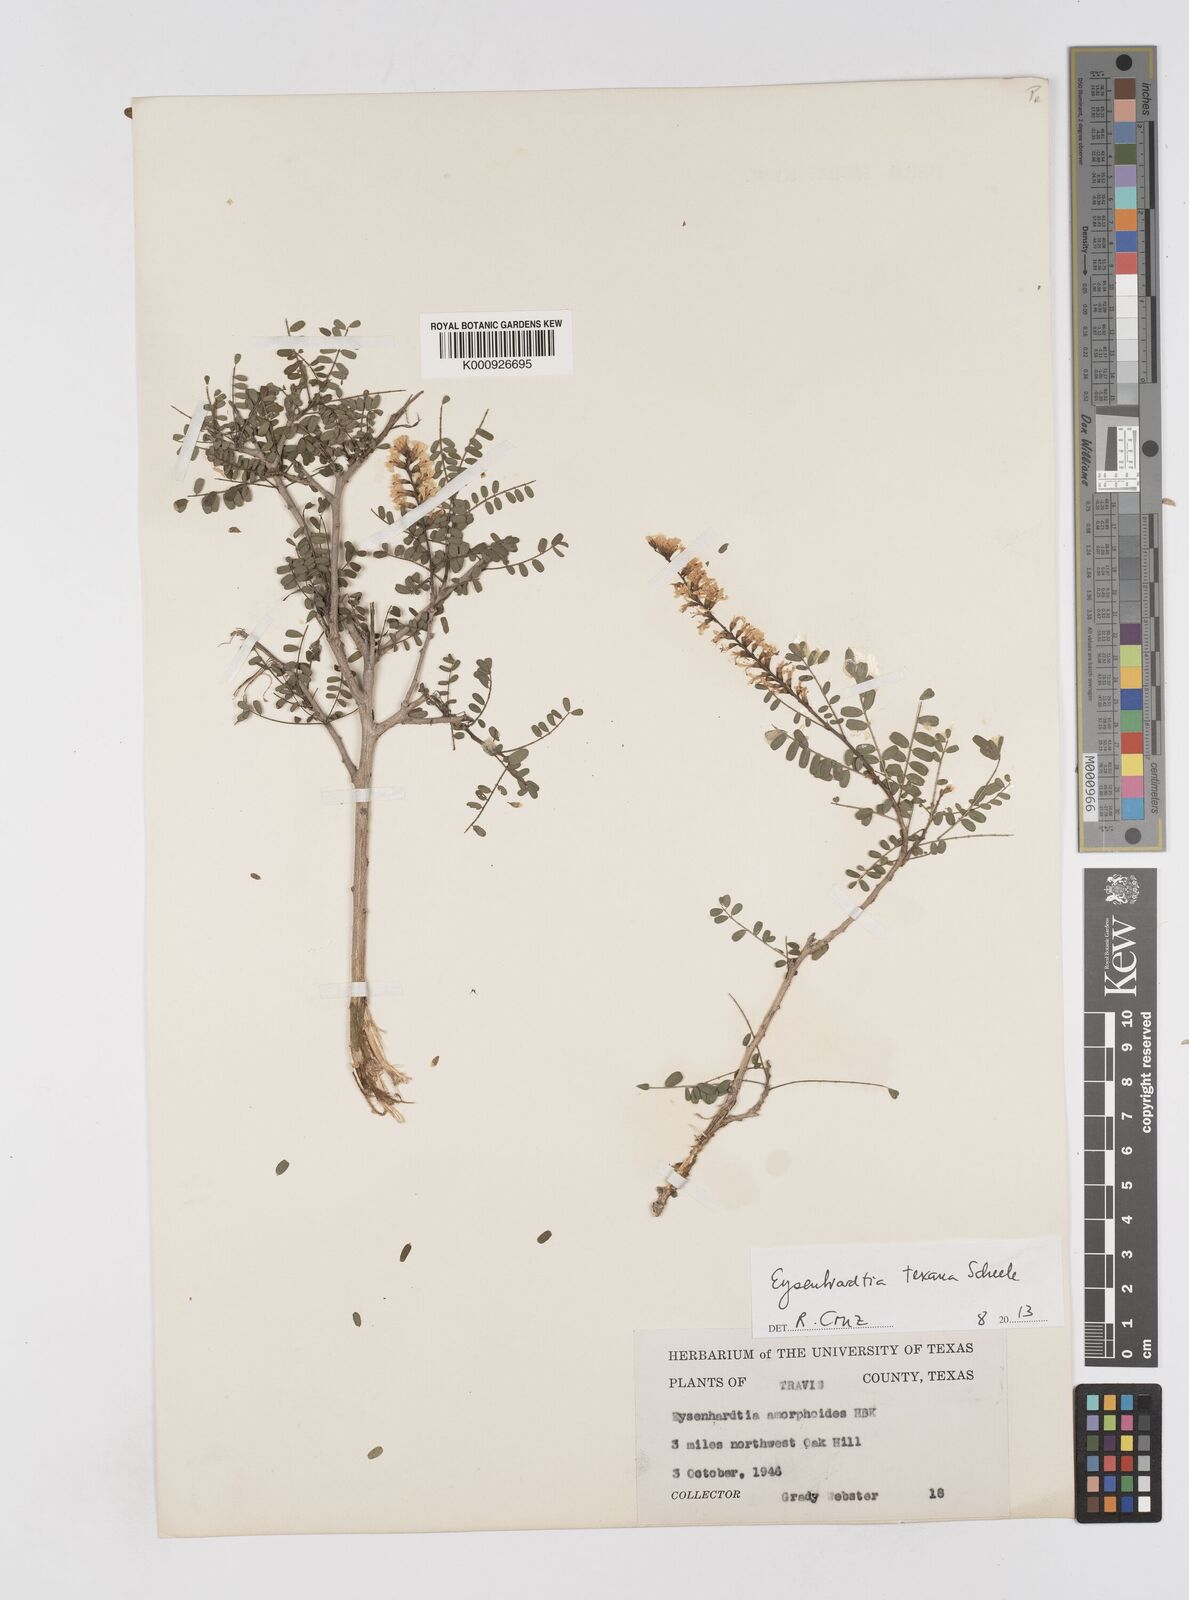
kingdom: Plantae
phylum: Tracheophyta
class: Magnoliopsida
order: Fabales
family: Fabaceae
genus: Eysenhardtia
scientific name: Eysenhardtia texana
